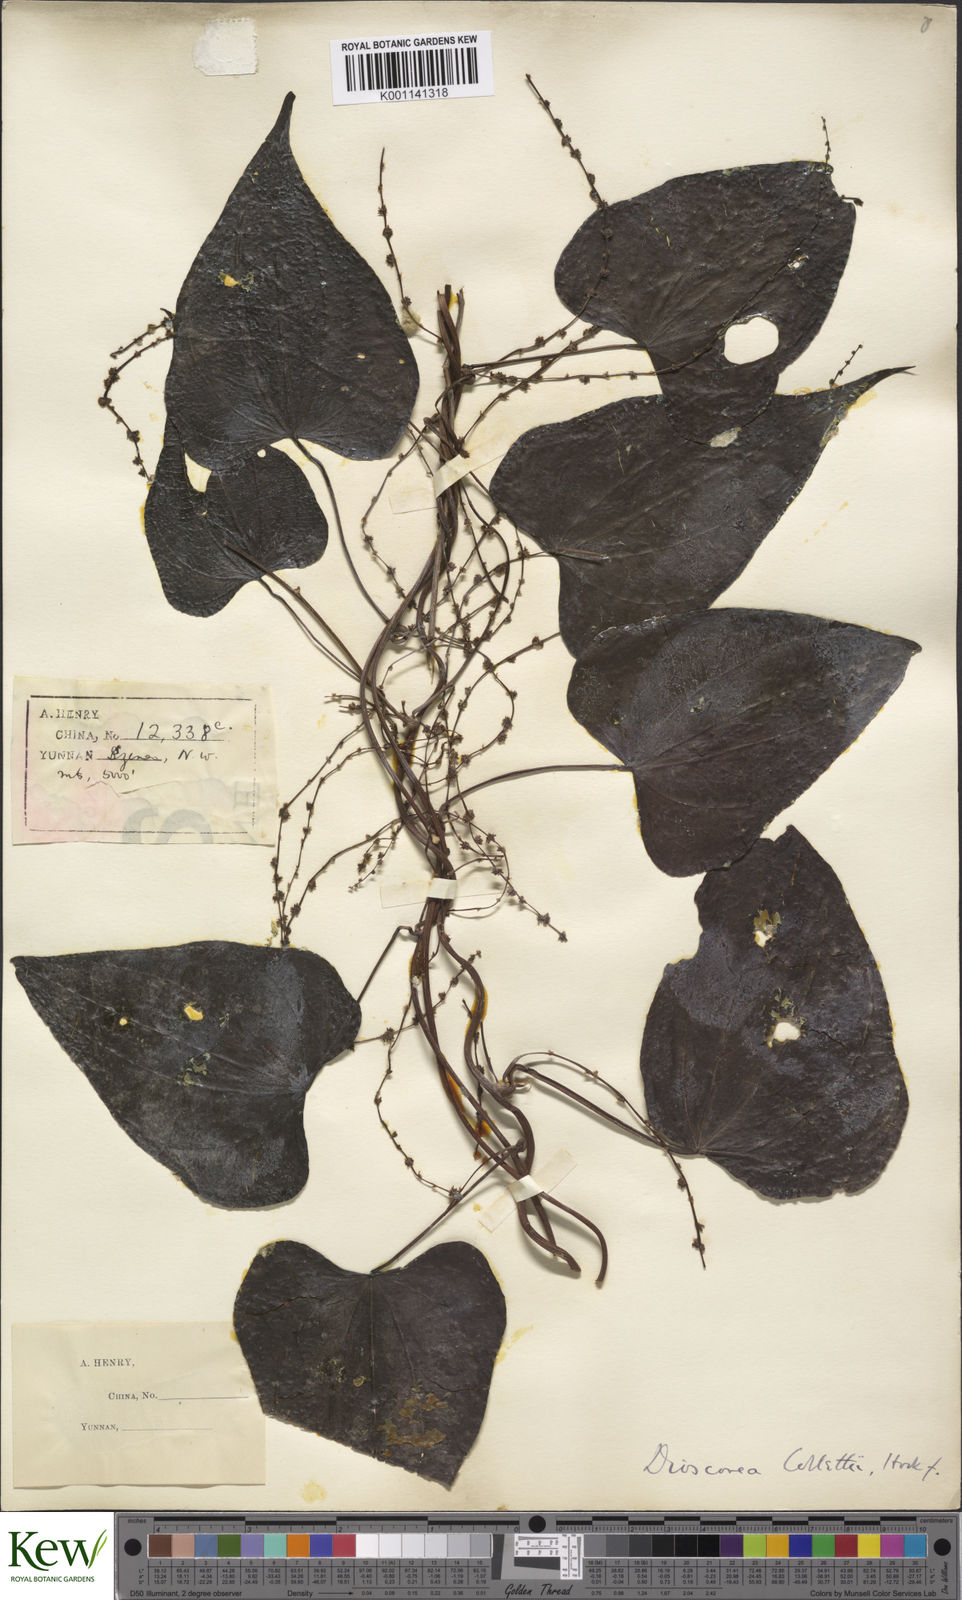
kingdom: Plantae
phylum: Tracheophyta
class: Liliopsida
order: Dioscoreales
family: Dioscoreaceae
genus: Dioscorea
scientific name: Dioscorea collettii
